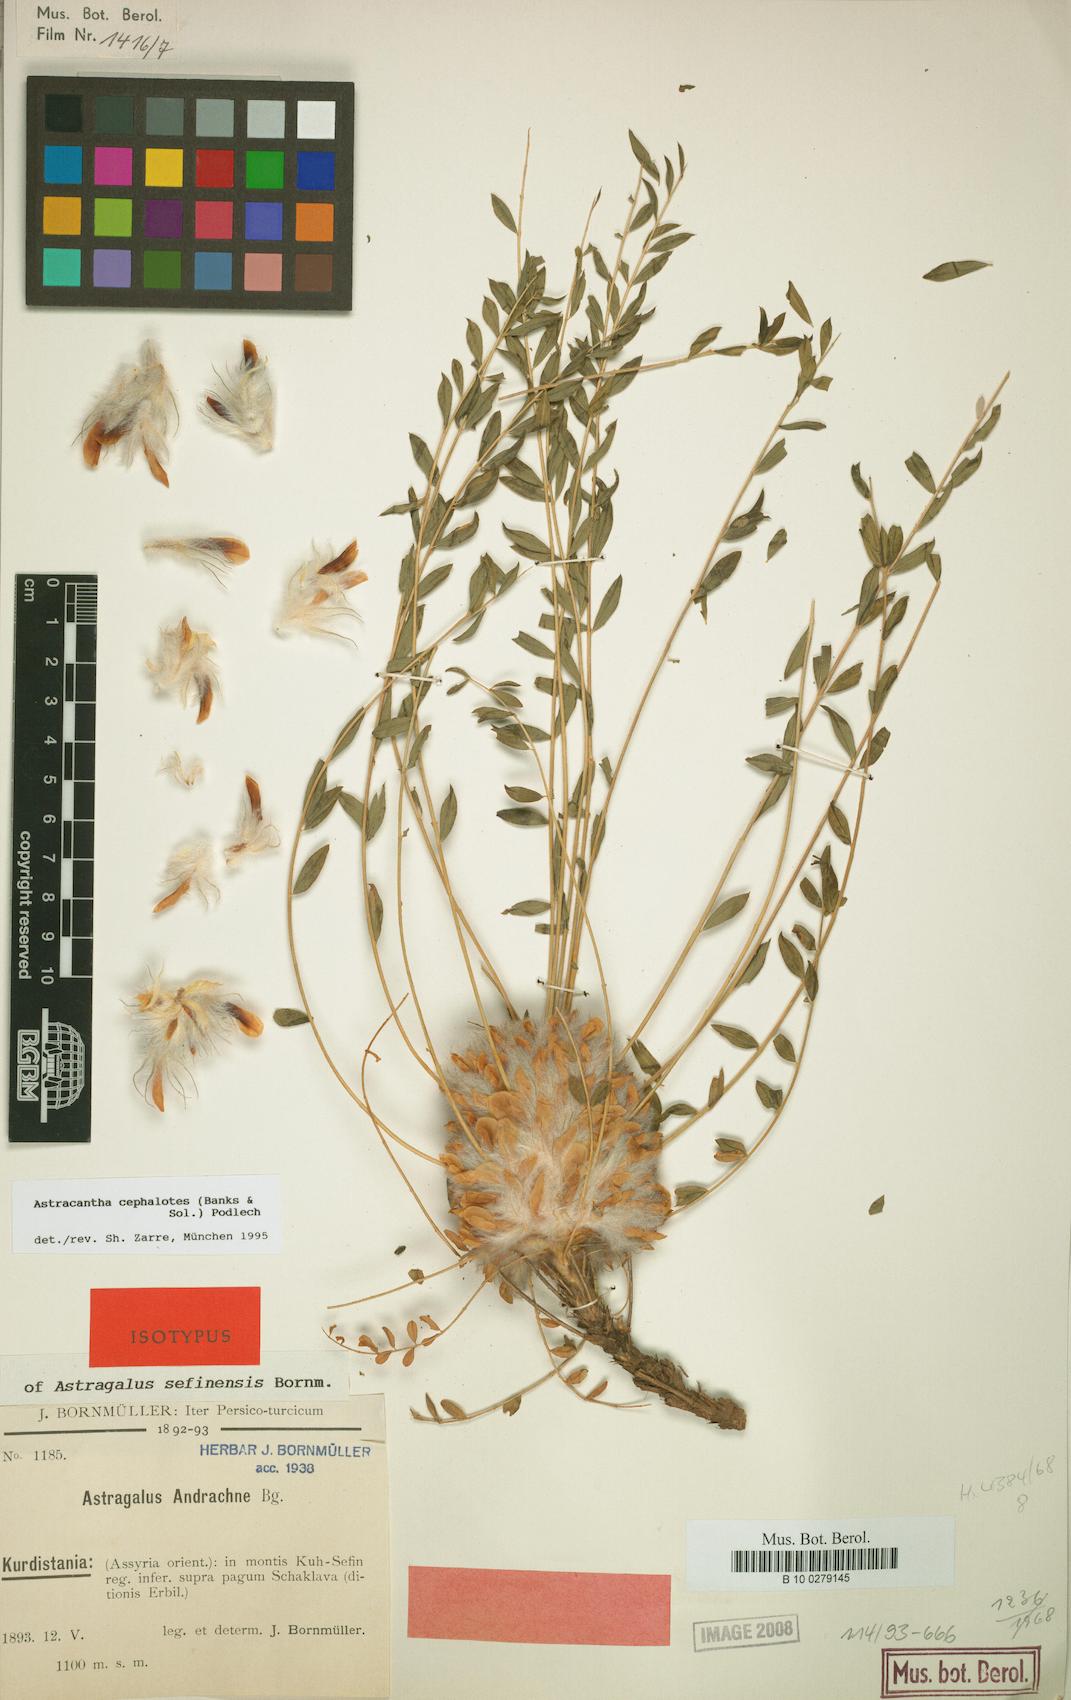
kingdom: Plantae
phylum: Tracheophyta
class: Magnoliopsida
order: Fabales
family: Fabaceae
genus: Astragalus
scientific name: Astragalus cephalotes
